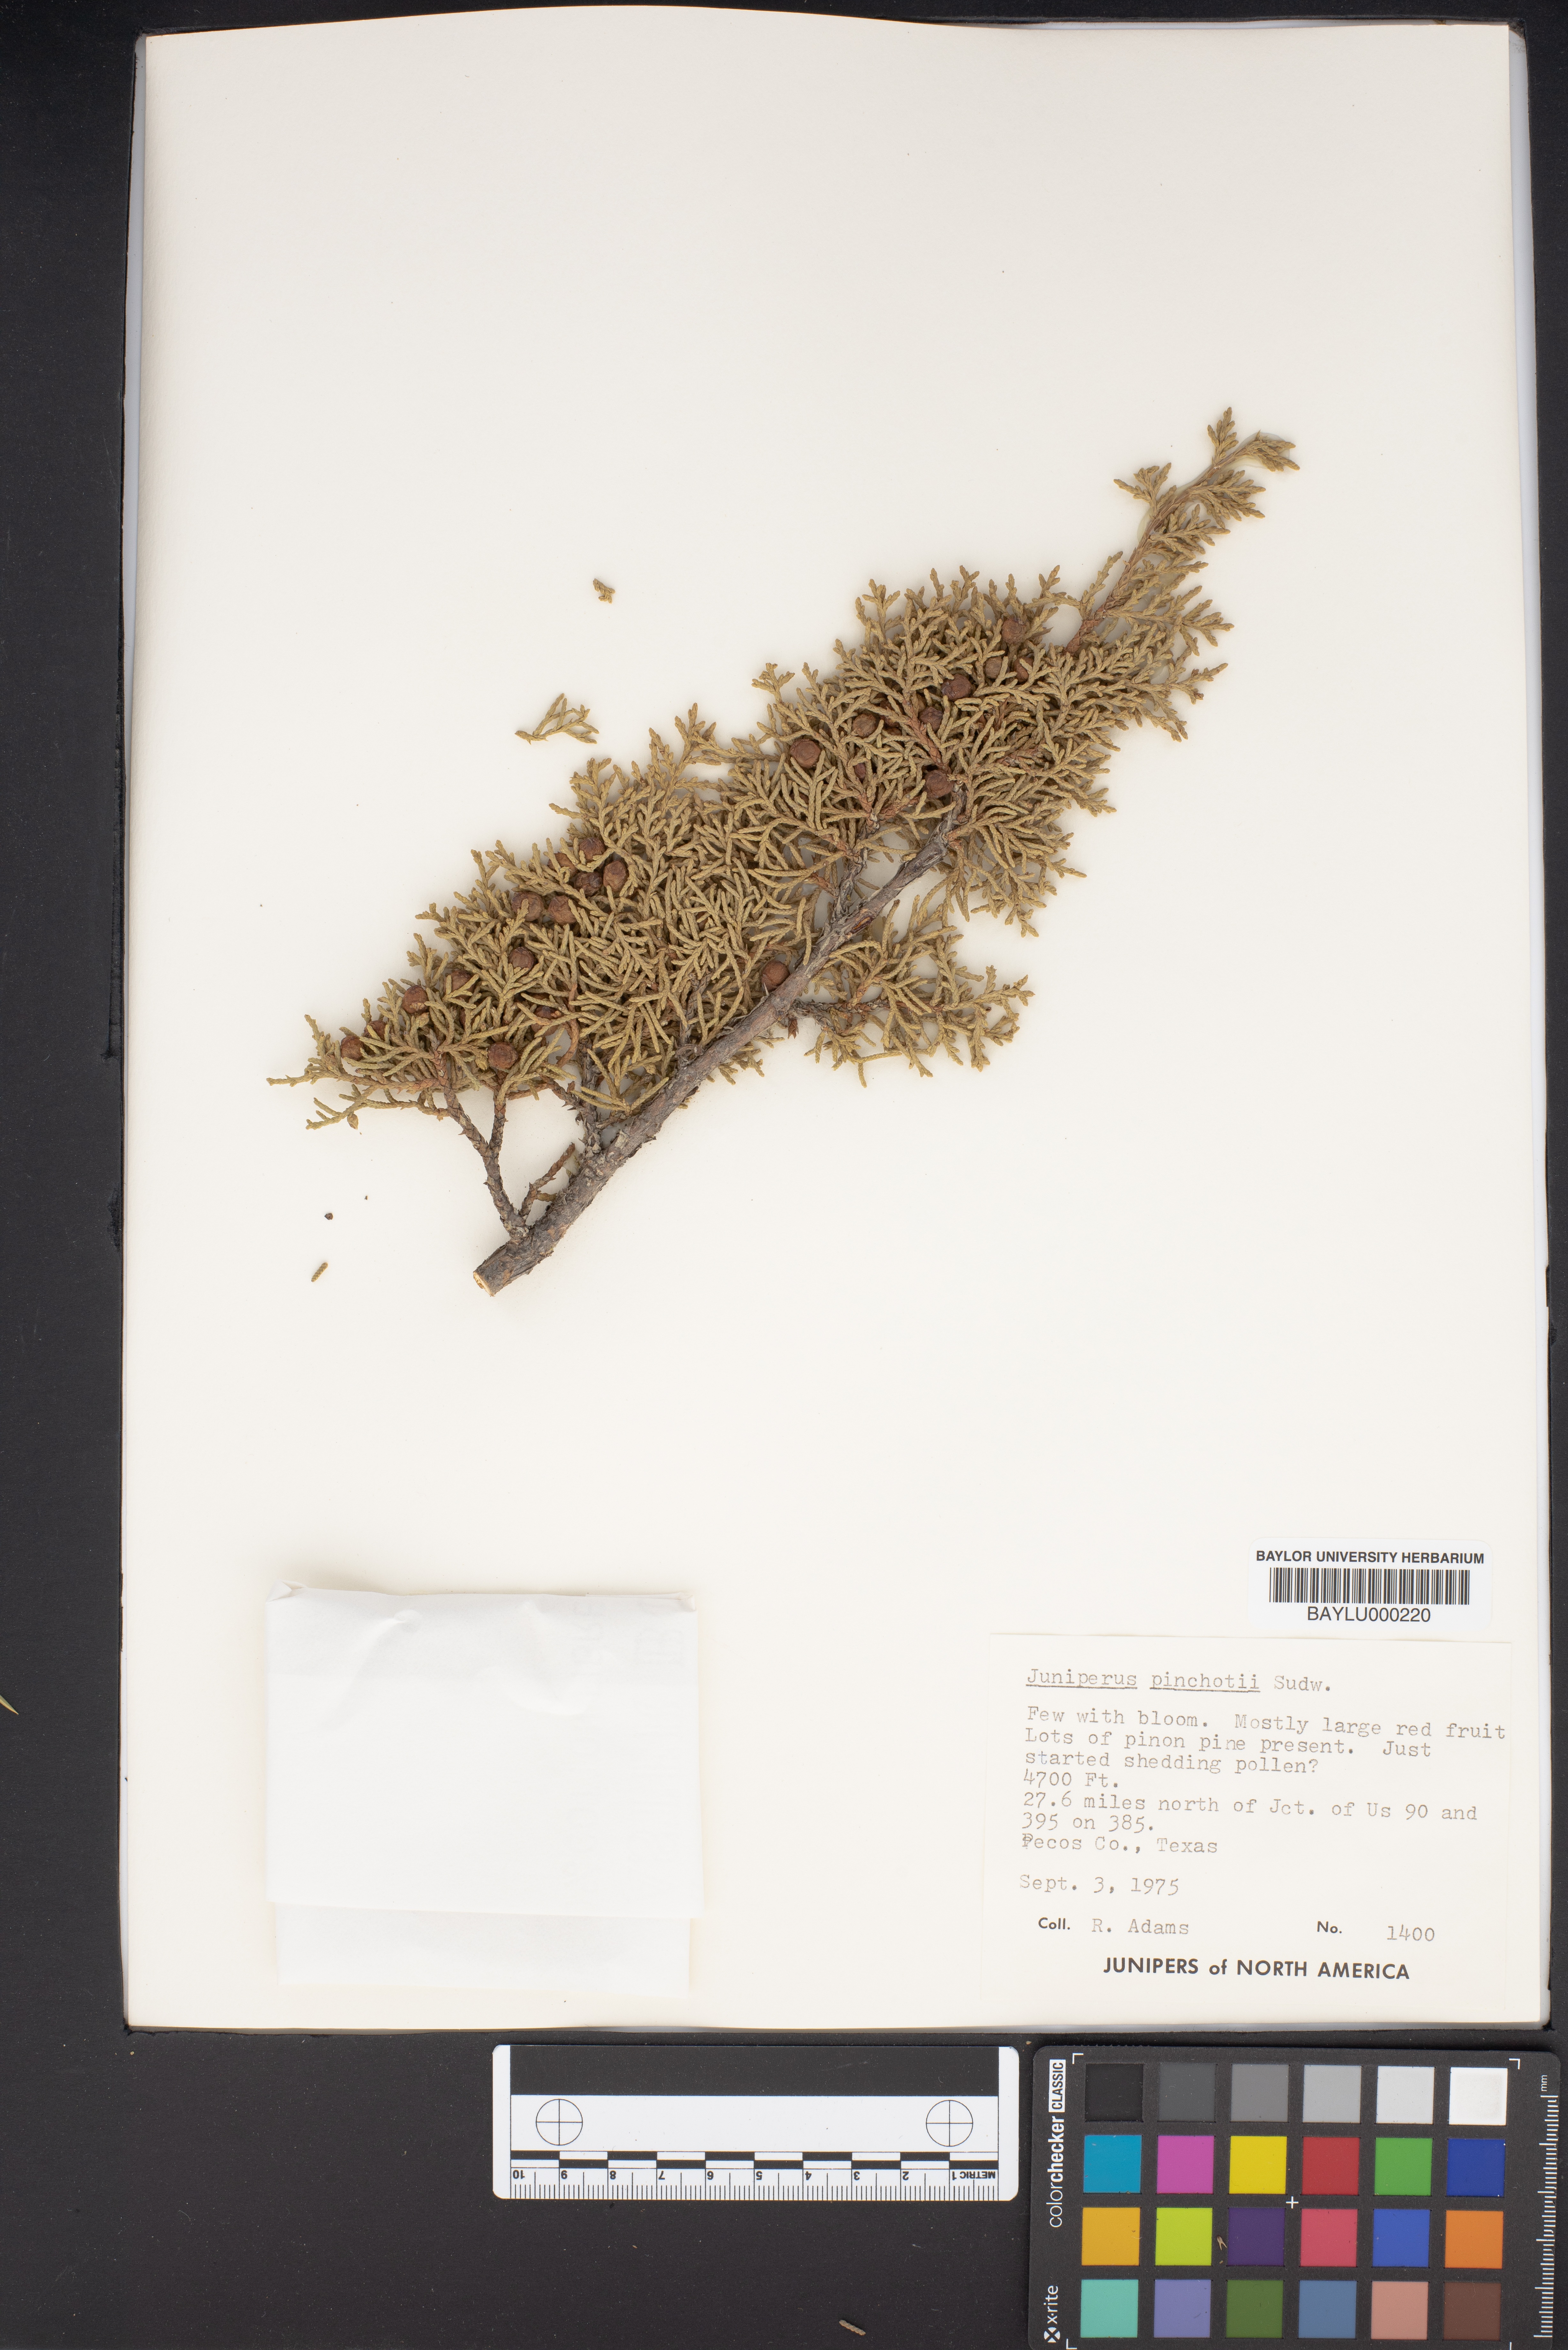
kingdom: Plantae
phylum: Tracheophyta
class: Pinopsida
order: Pinales
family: Cupressaceae
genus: Juniperus
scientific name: Juniperus pinchotii
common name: Pinchot juniper
